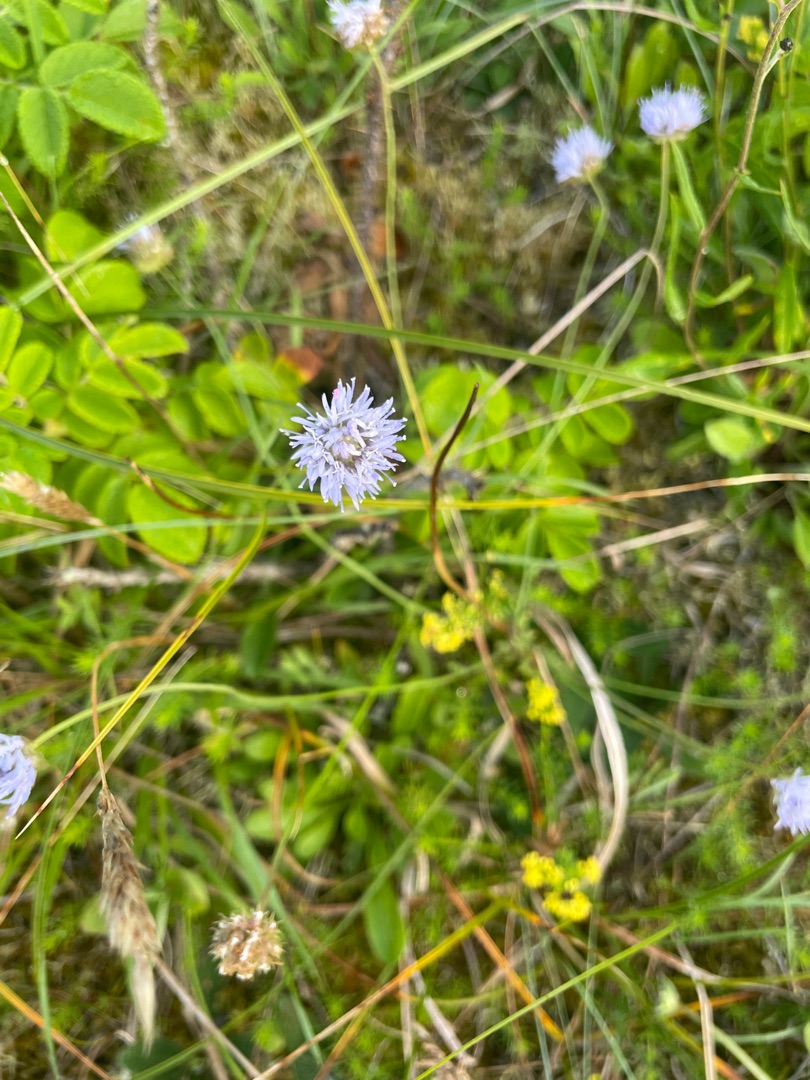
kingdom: Plantae
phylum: Tracheophyta
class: Magnoliopsida
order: Asterales
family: Campanulaceae
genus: Jasione
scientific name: Jasione montana
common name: Blåmunke
